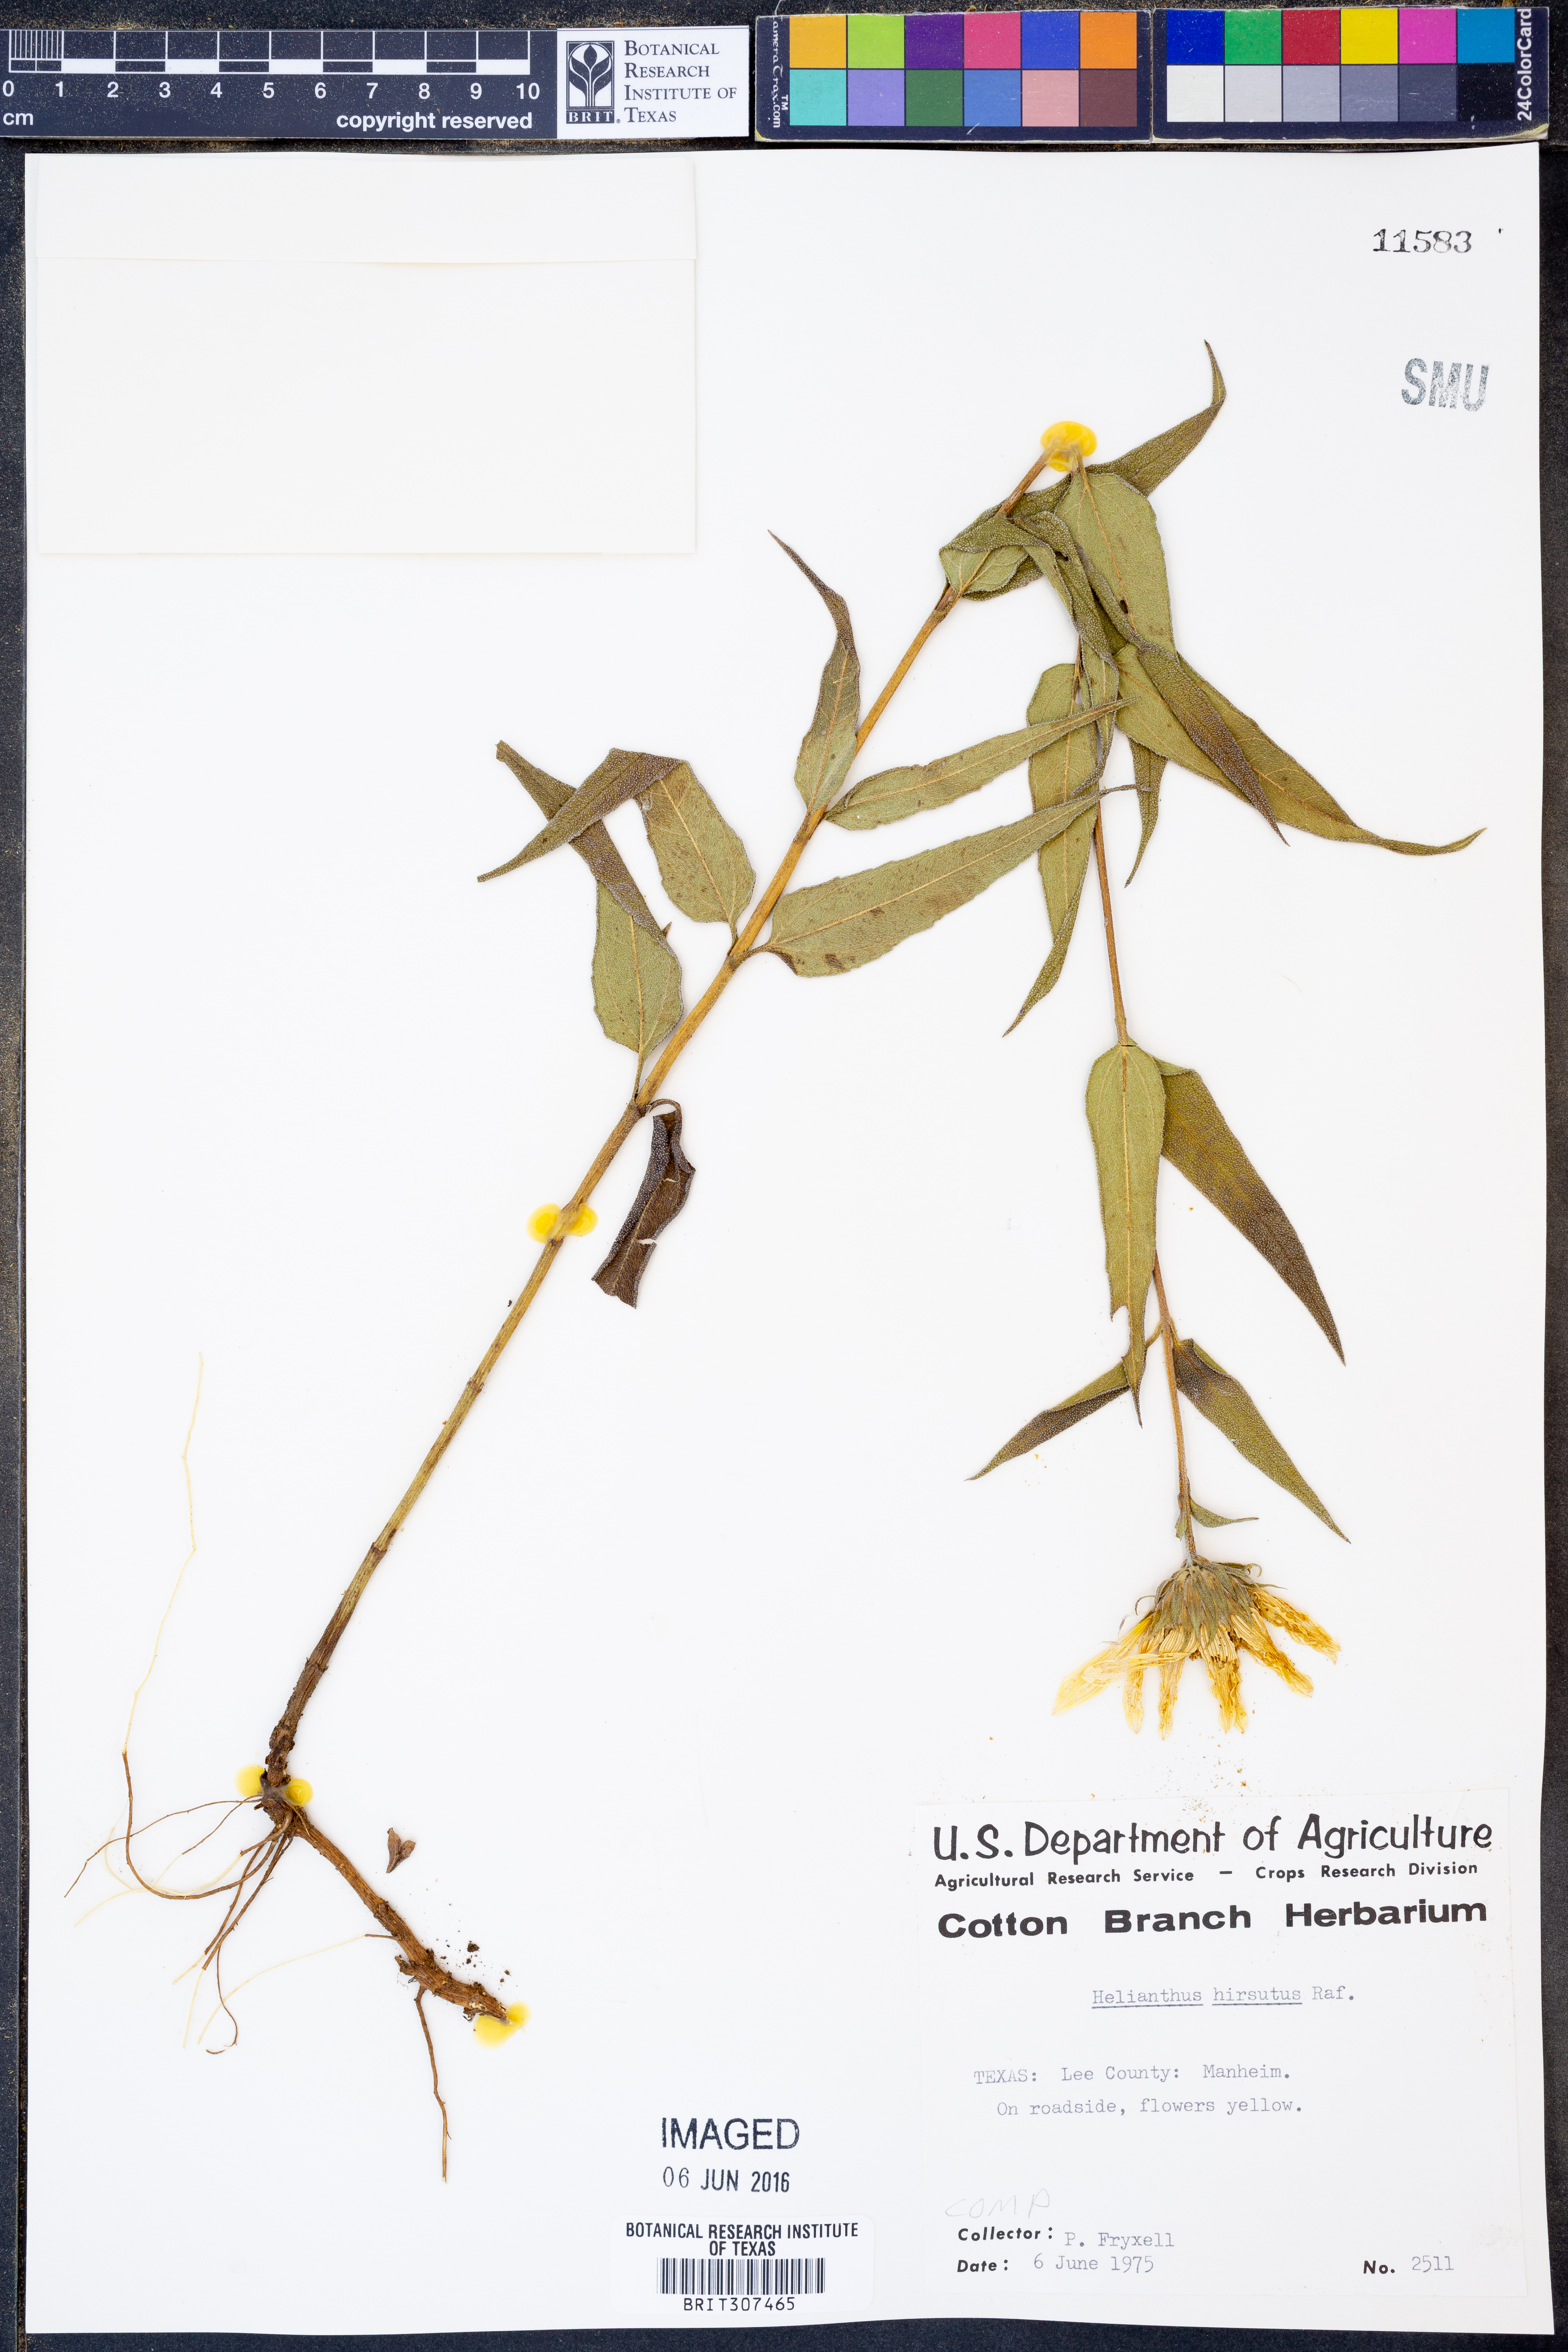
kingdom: Plantae
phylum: Tracheophyta
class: Magnoliopsida
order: Asterales
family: Asteraceae
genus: Helianthus
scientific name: Helianthus hirsutus
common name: Hairy sunflower
